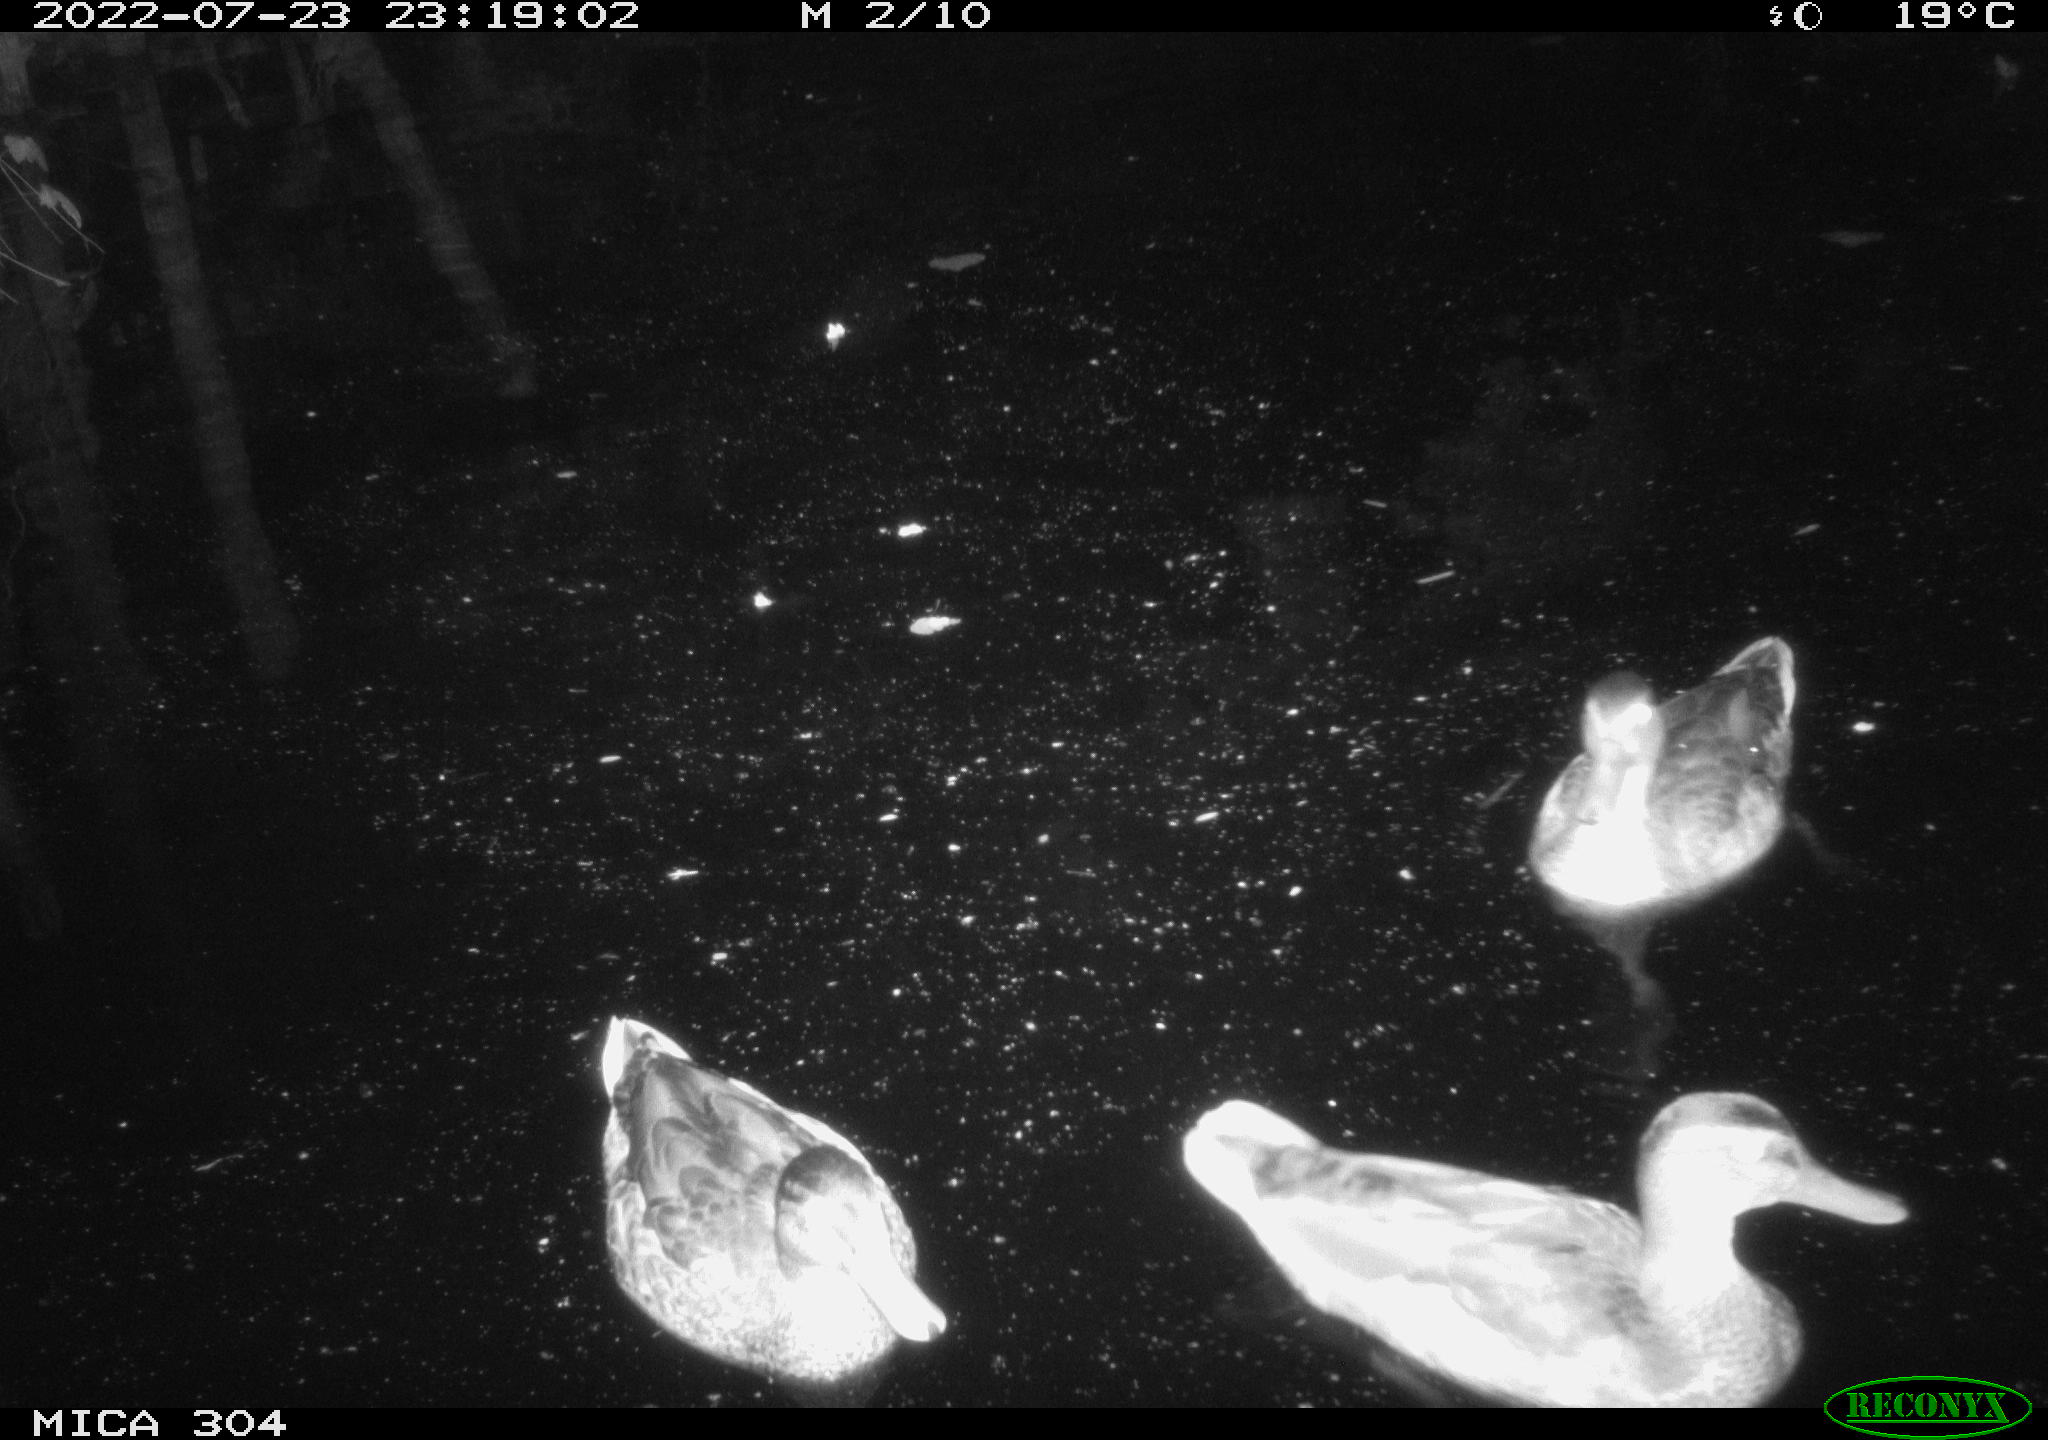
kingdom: Animalia
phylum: Chordata
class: Aves
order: Anseriformes
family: Anatidae
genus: Mareca
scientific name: Mareca strepera
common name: Gadwall
